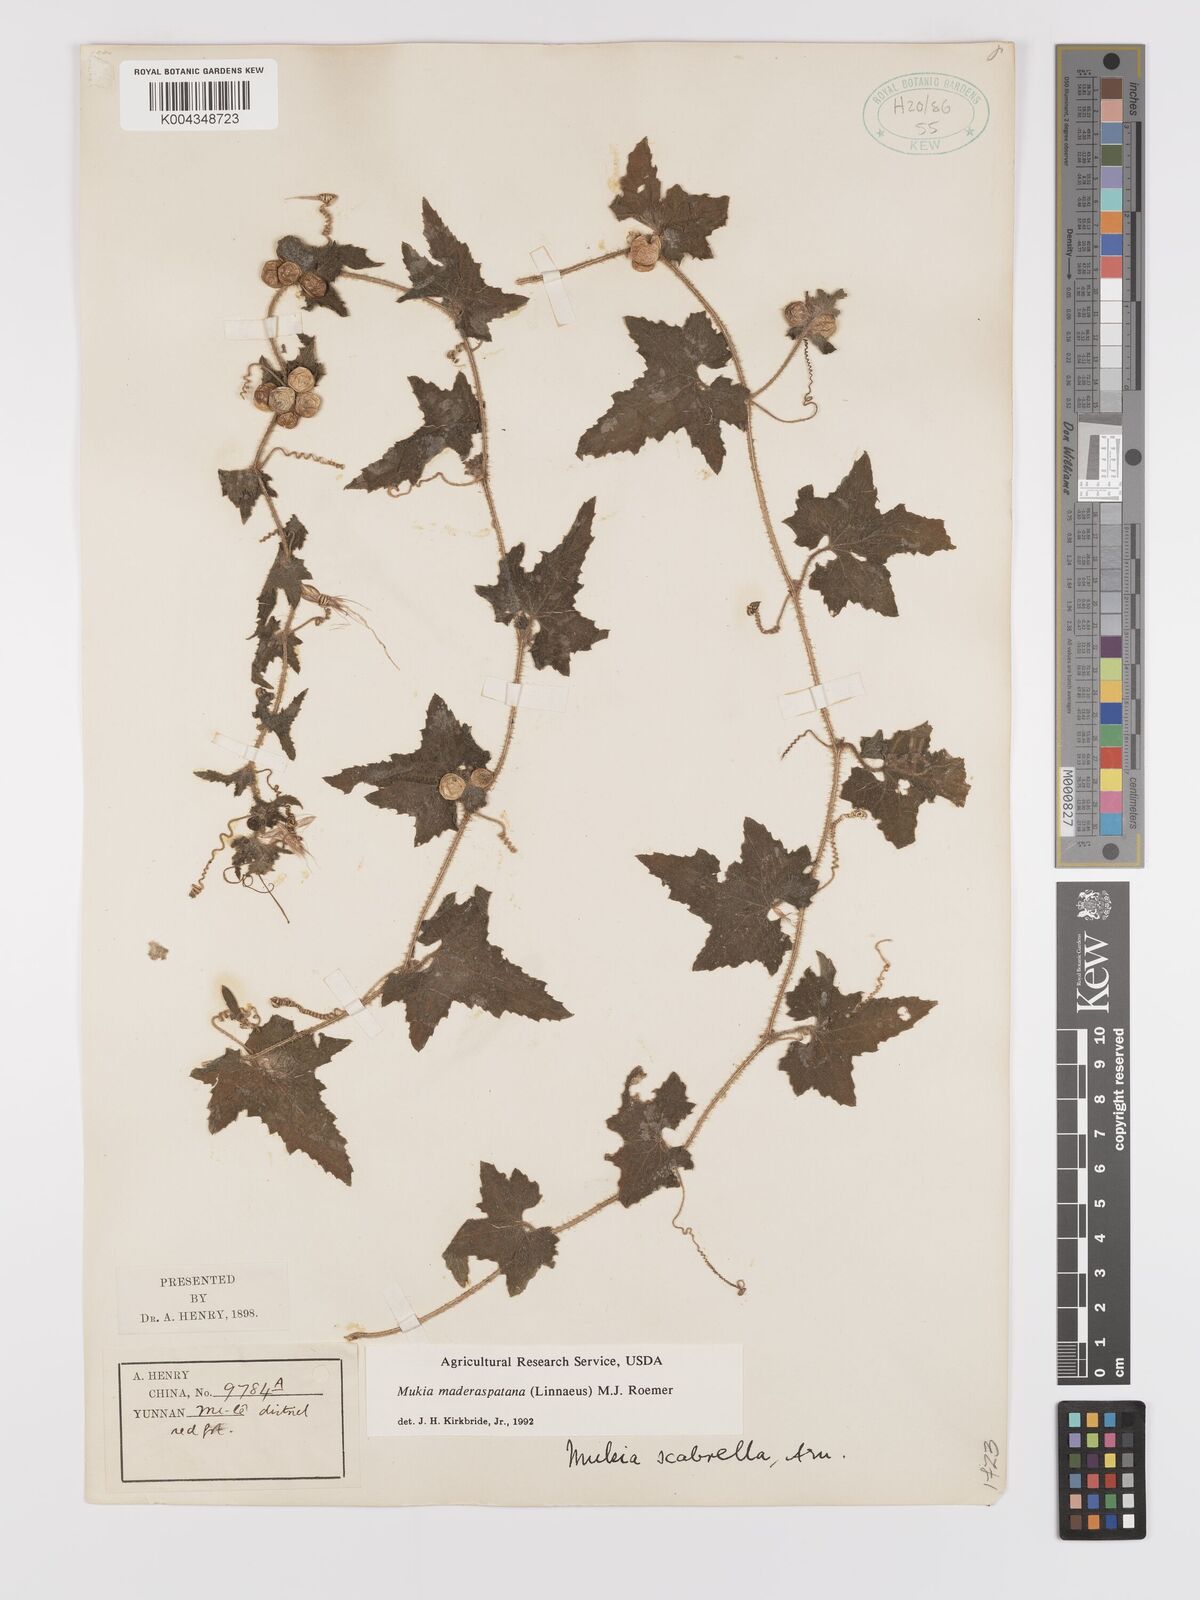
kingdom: Plantae
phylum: Tracheophyta
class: Magnoliopsida
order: Cucurbitales
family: Cucurbitaceae
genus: Cucumis
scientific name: Cucumis maderaspatanus
